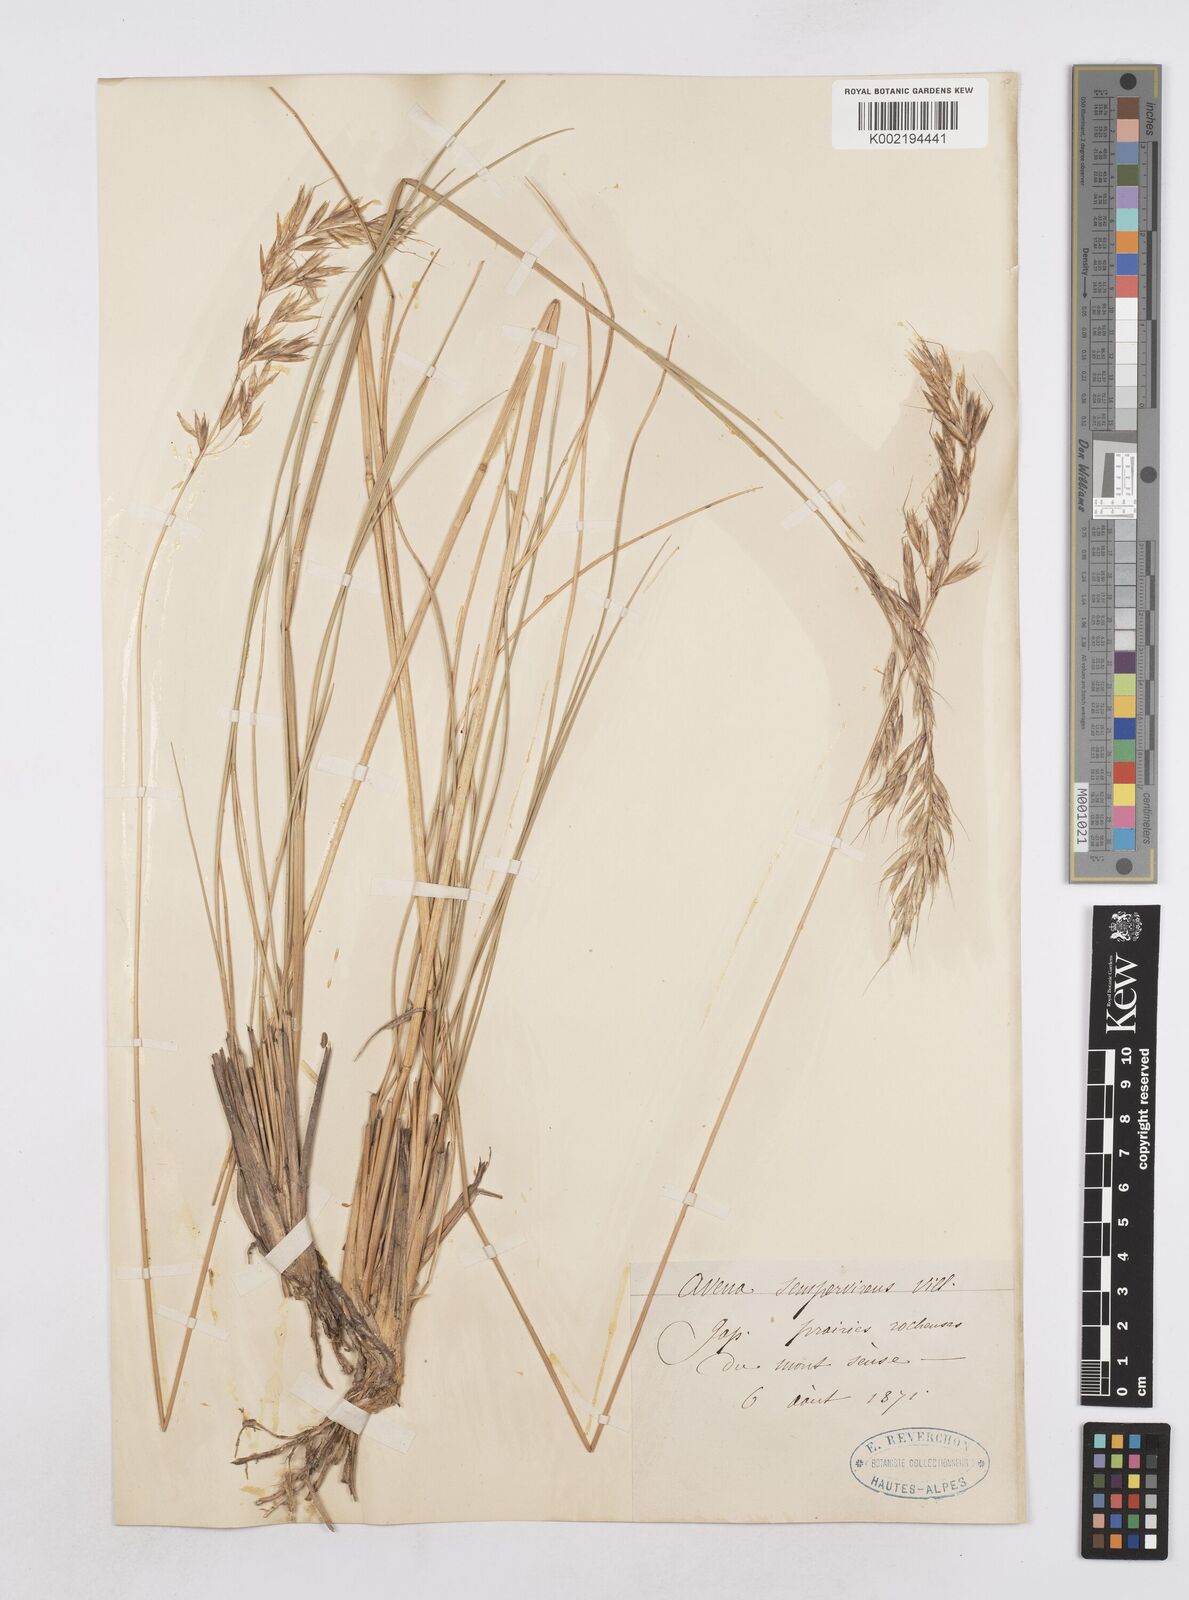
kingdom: Plantae
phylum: Tracheophyta
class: Liliopsida
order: Poales
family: Poaceae
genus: Helictotrichon
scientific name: Helictotrichon sempervirens
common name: Blue oat-grass
